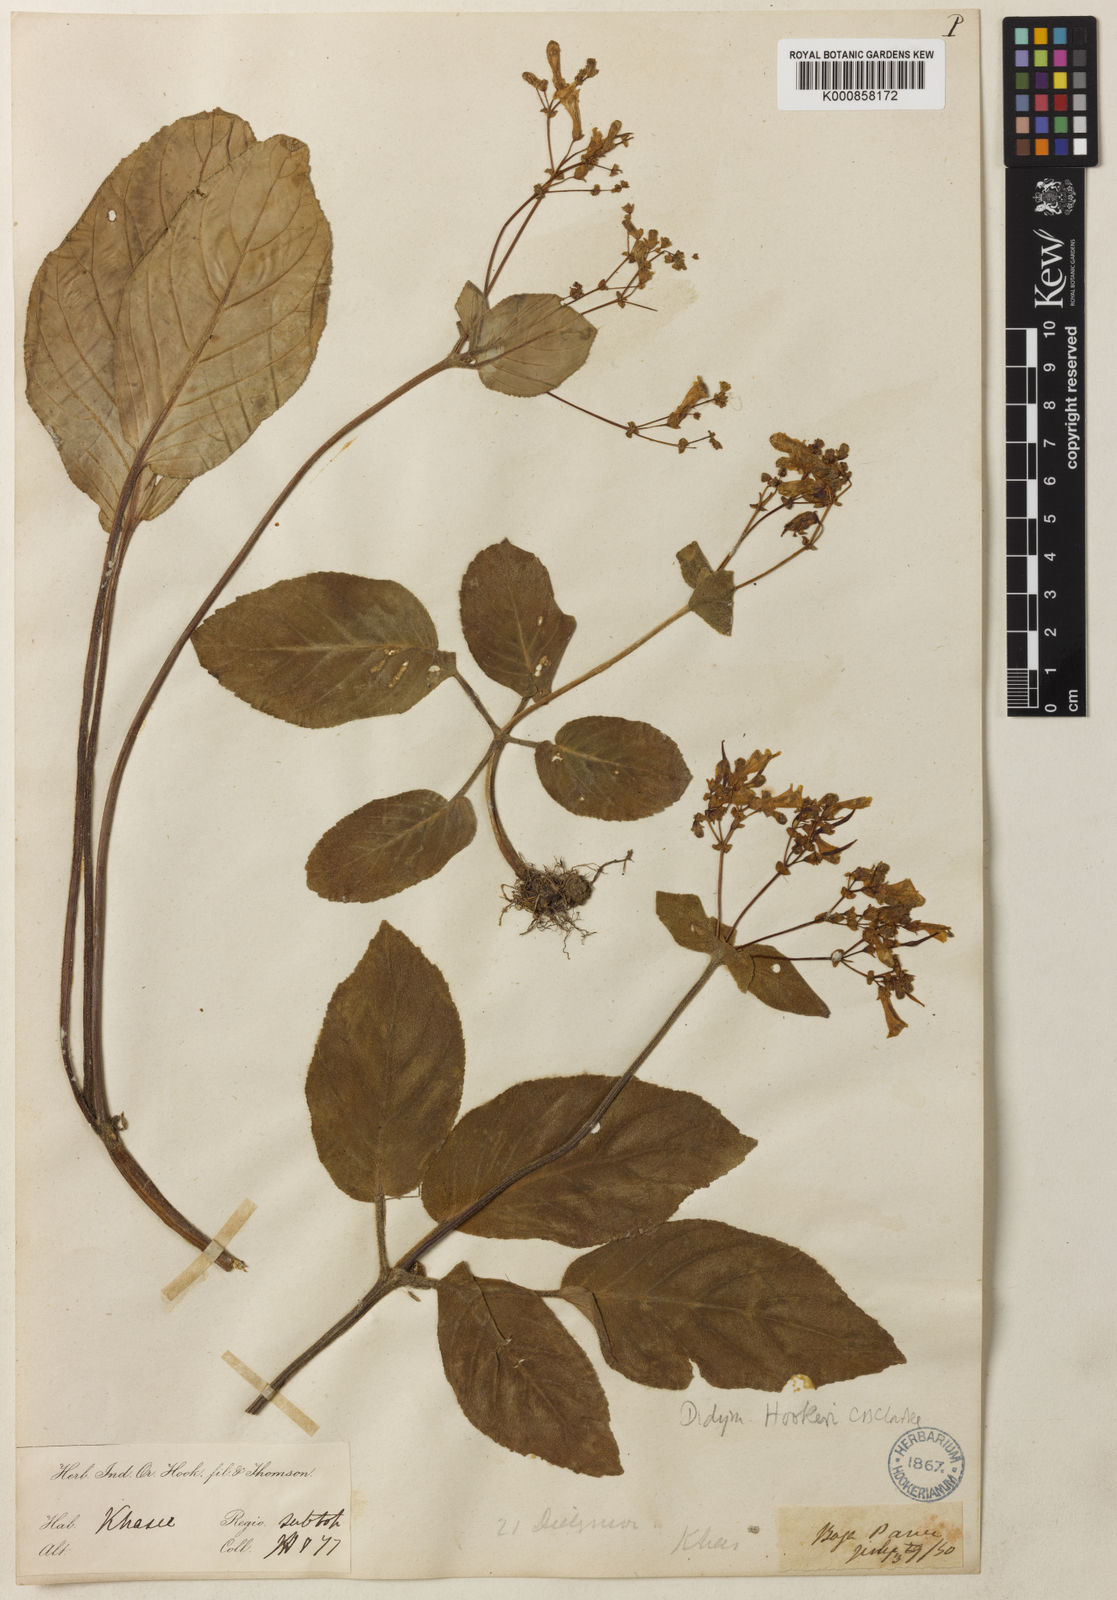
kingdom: Plantae
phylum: Tracheophyta
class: Magnoliopsida
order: Lamiales
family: Gesneriaceae
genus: Henckelia
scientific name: Henckelia
